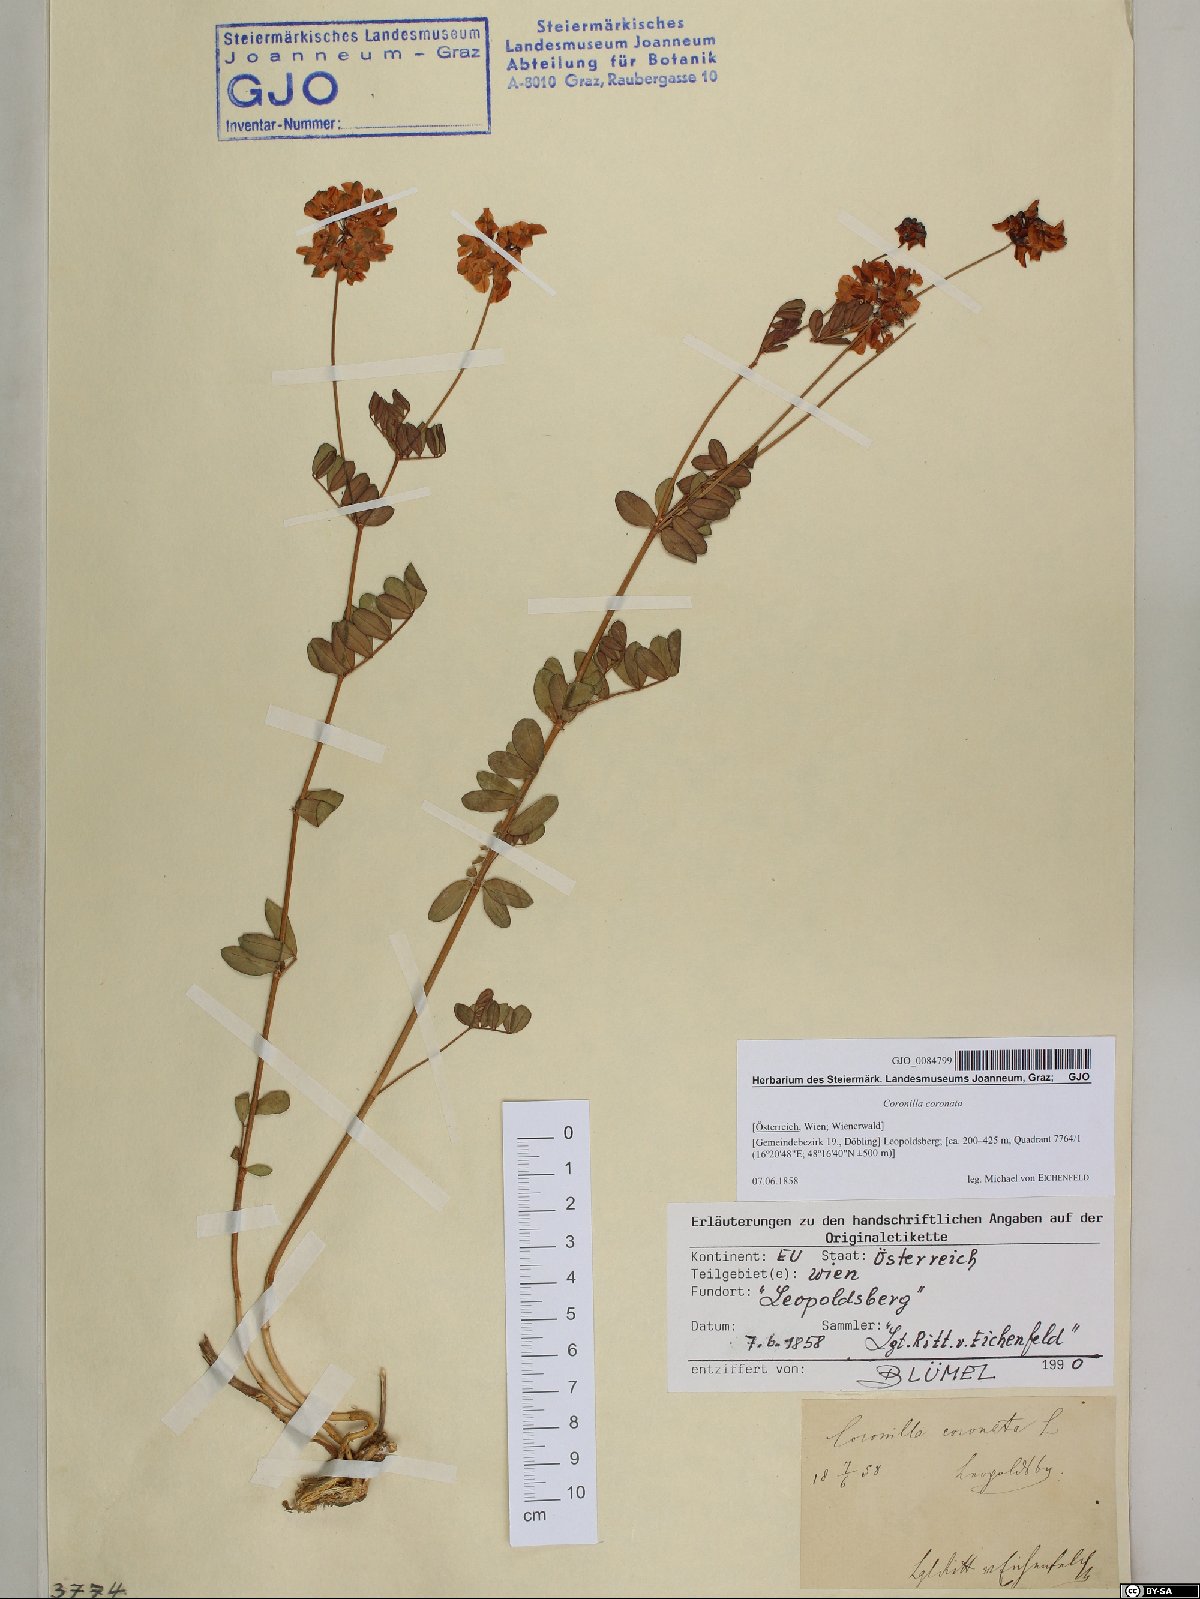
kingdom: Plantae
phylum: Tracheophyta
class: Magnoliopsida
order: Fabales
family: Fabaceae
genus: Coronilla
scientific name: Coronilla coronata
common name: Scorpion-vetch
